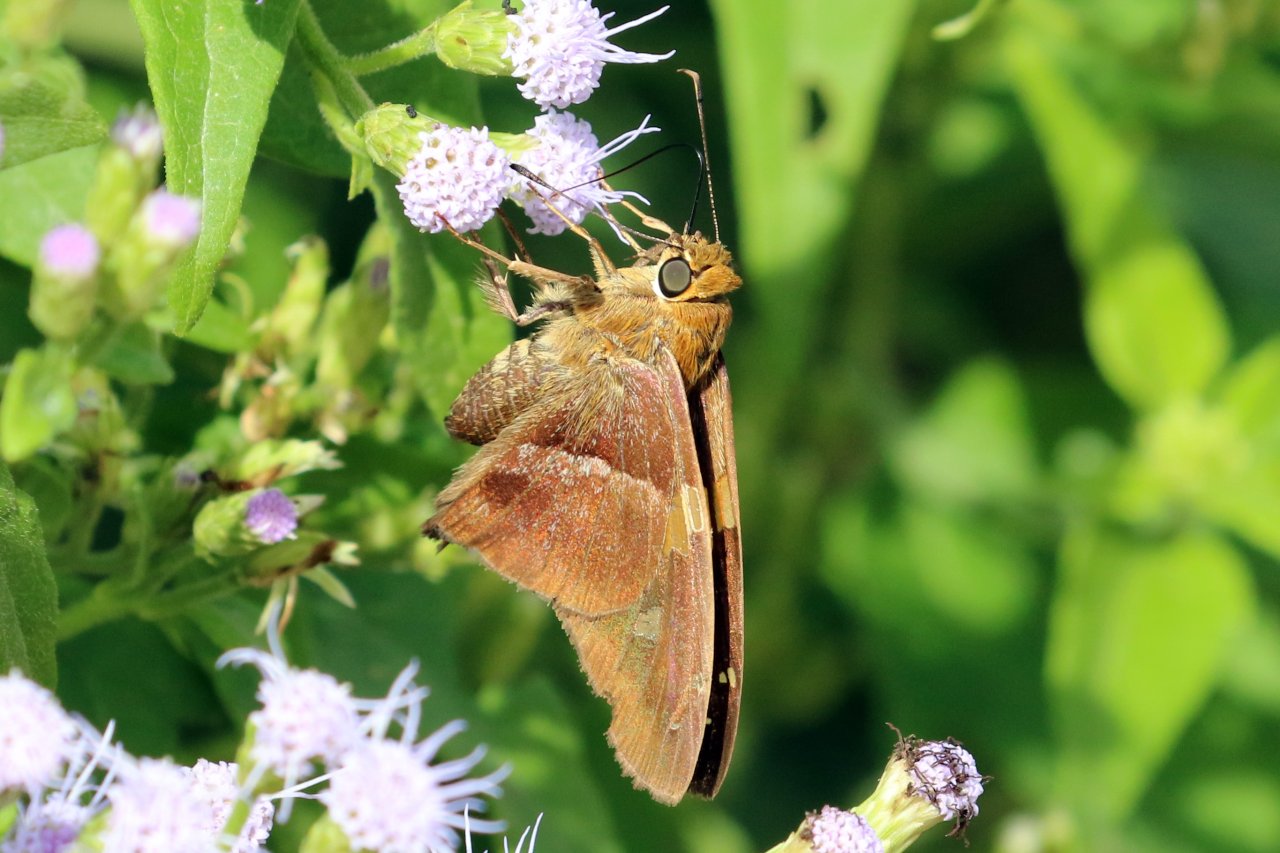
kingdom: Animalia
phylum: Arthropoda
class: Insecta
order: Lepidoptera
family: Hesperiidae
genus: Aguna
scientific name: Aguna asander
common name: Gold-spotted Aguna
